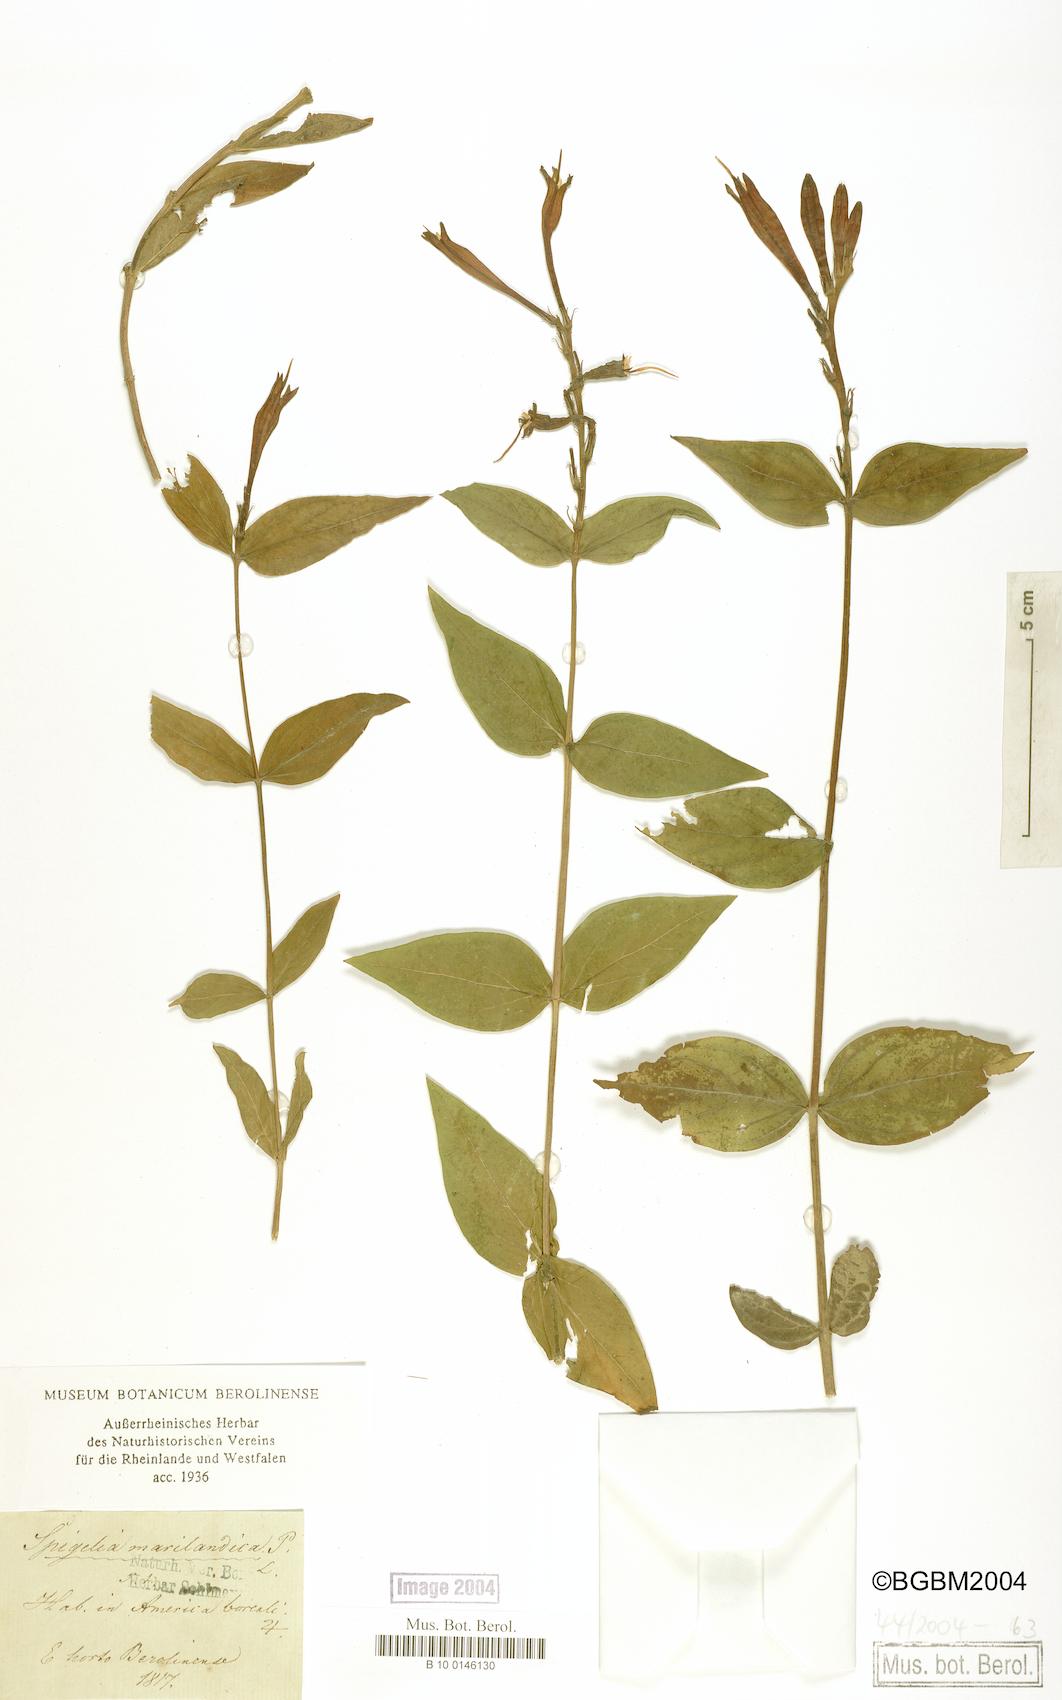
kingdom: Plantae
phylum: Tracheophyta
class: Magnoliopsida
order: Gentianales
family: Loganiaceae
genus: Spigelia
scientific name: Spigelia marilandica
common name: Indian-pink
